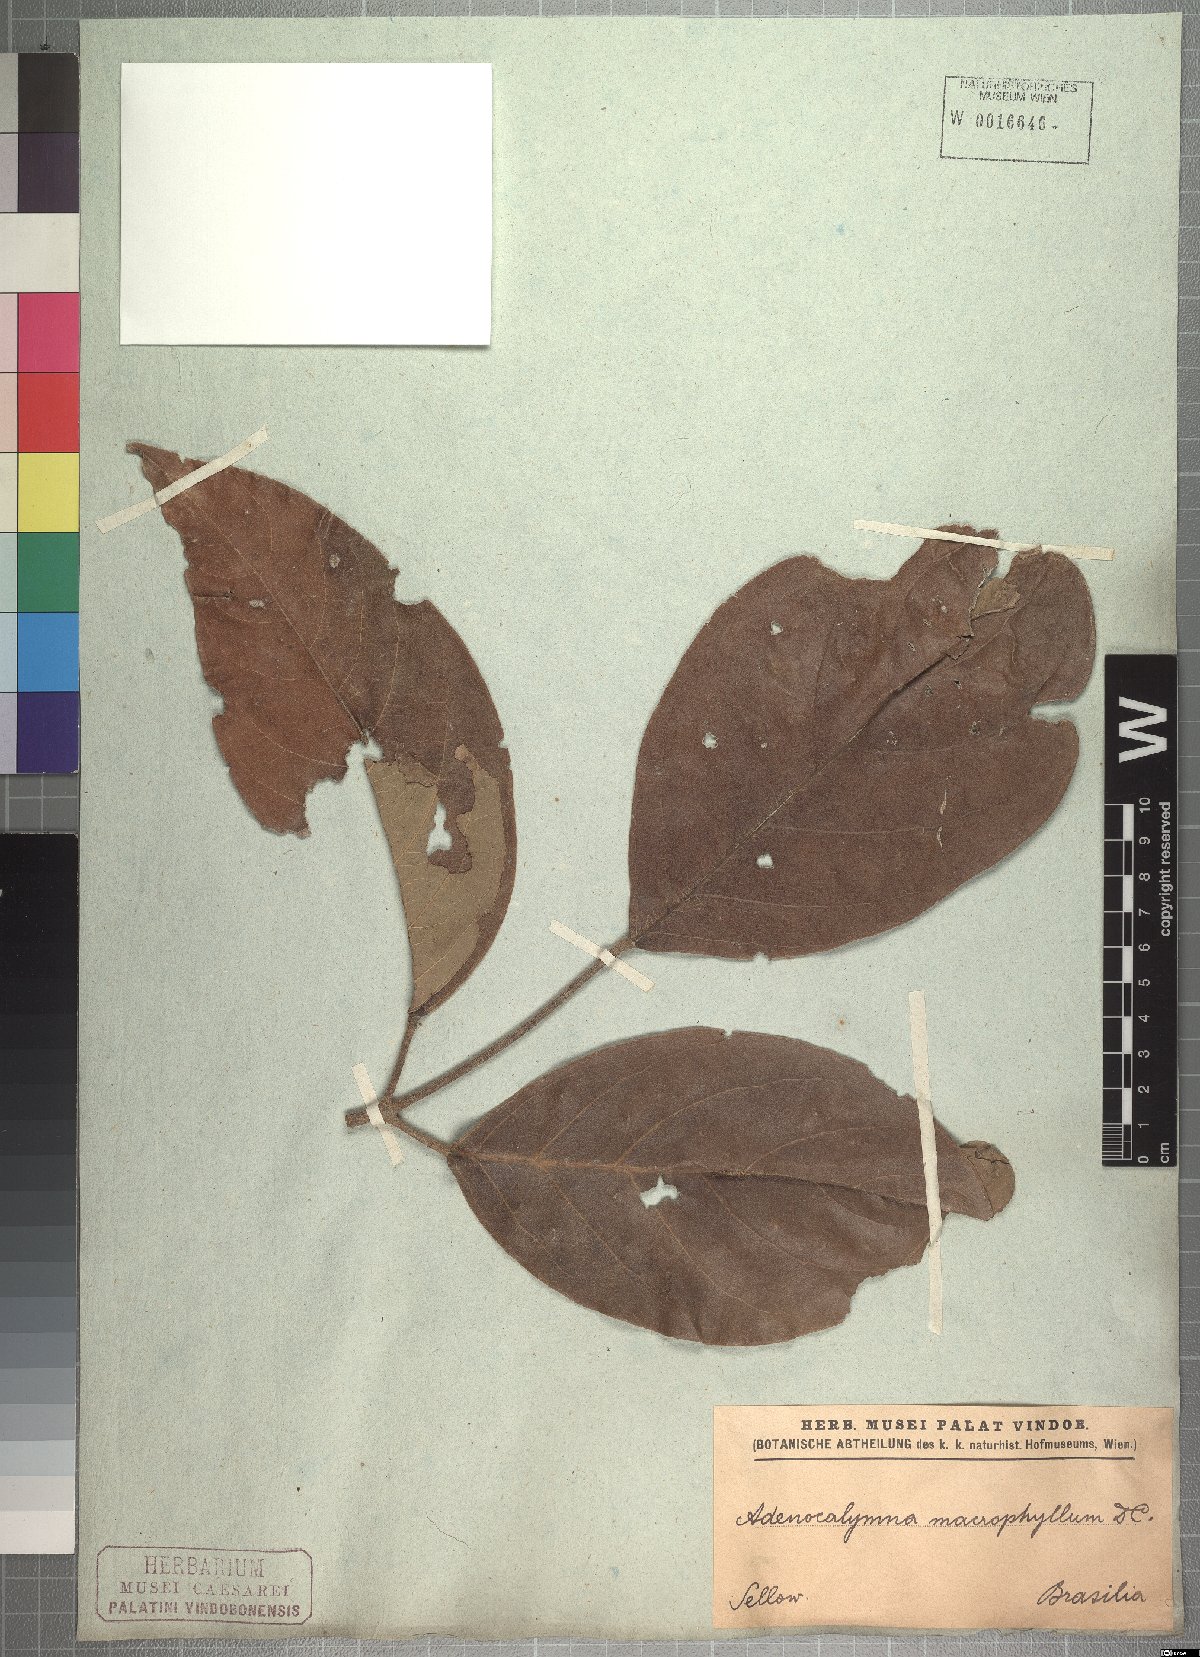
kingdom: Plantae
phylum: Tracheophyta
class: Magnoliopsida
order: Lamiales
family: Bignoniaceae
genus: Adenocalymma
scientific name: Adenocalymma ternatum
